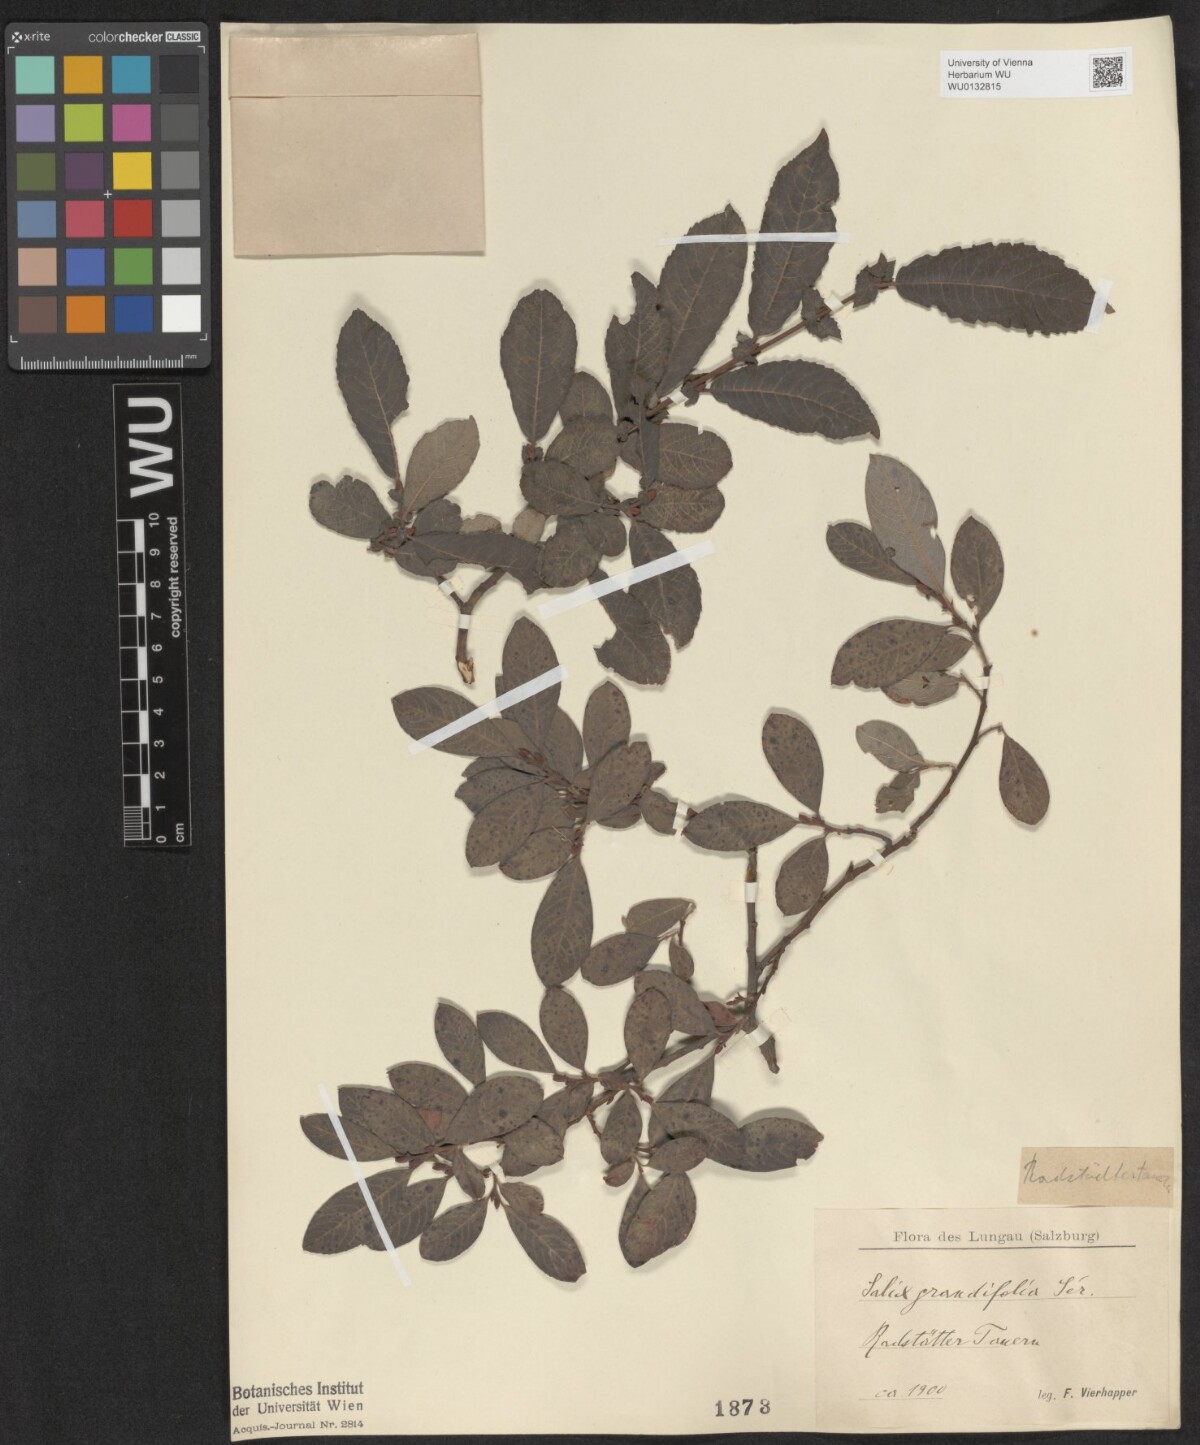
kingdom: Plantae
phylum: Tracheophyta
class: Magnoliopsida
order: Malpighiales
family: Salicaceae
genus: Salix
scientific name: Salix appendiculata
